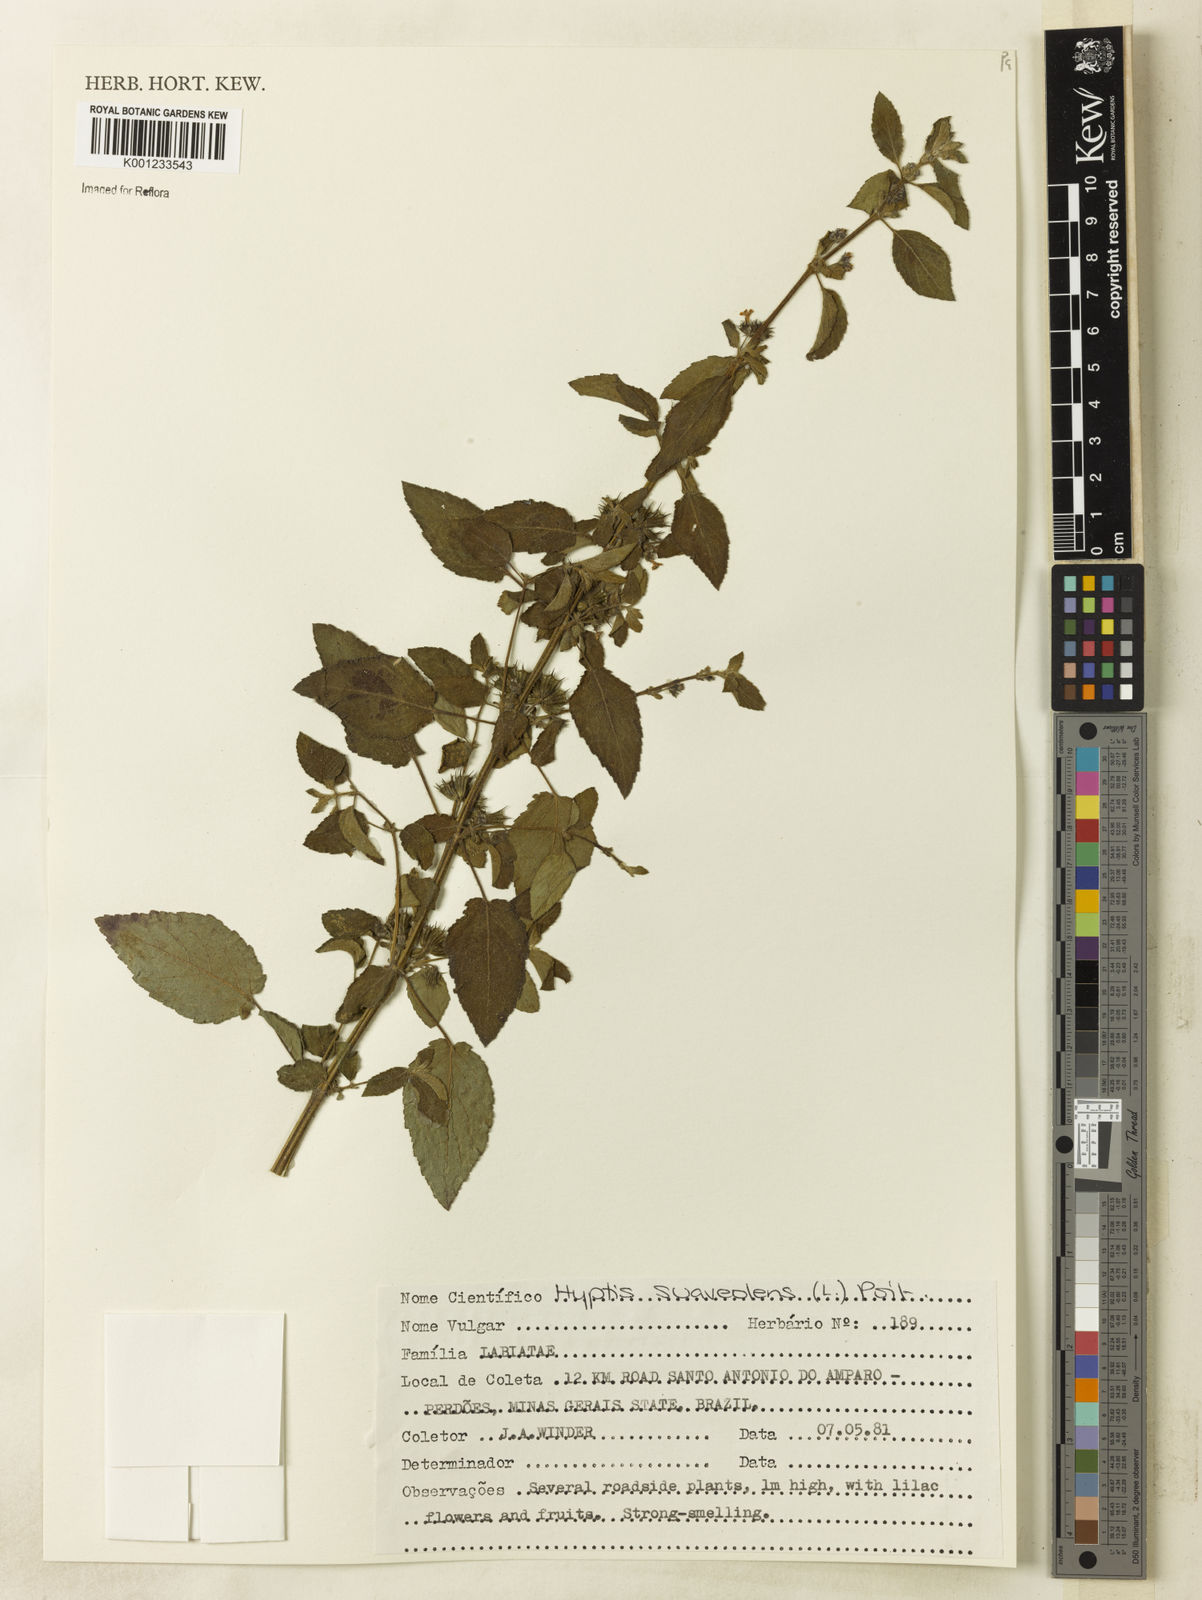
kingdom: Plantae
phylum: Tracheophyta
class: Magnoliopsida
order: Lamiales
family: Lamiaceae
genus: Mesosphaerum
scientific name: Mesosphaerum suaveolens
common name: Pignut
